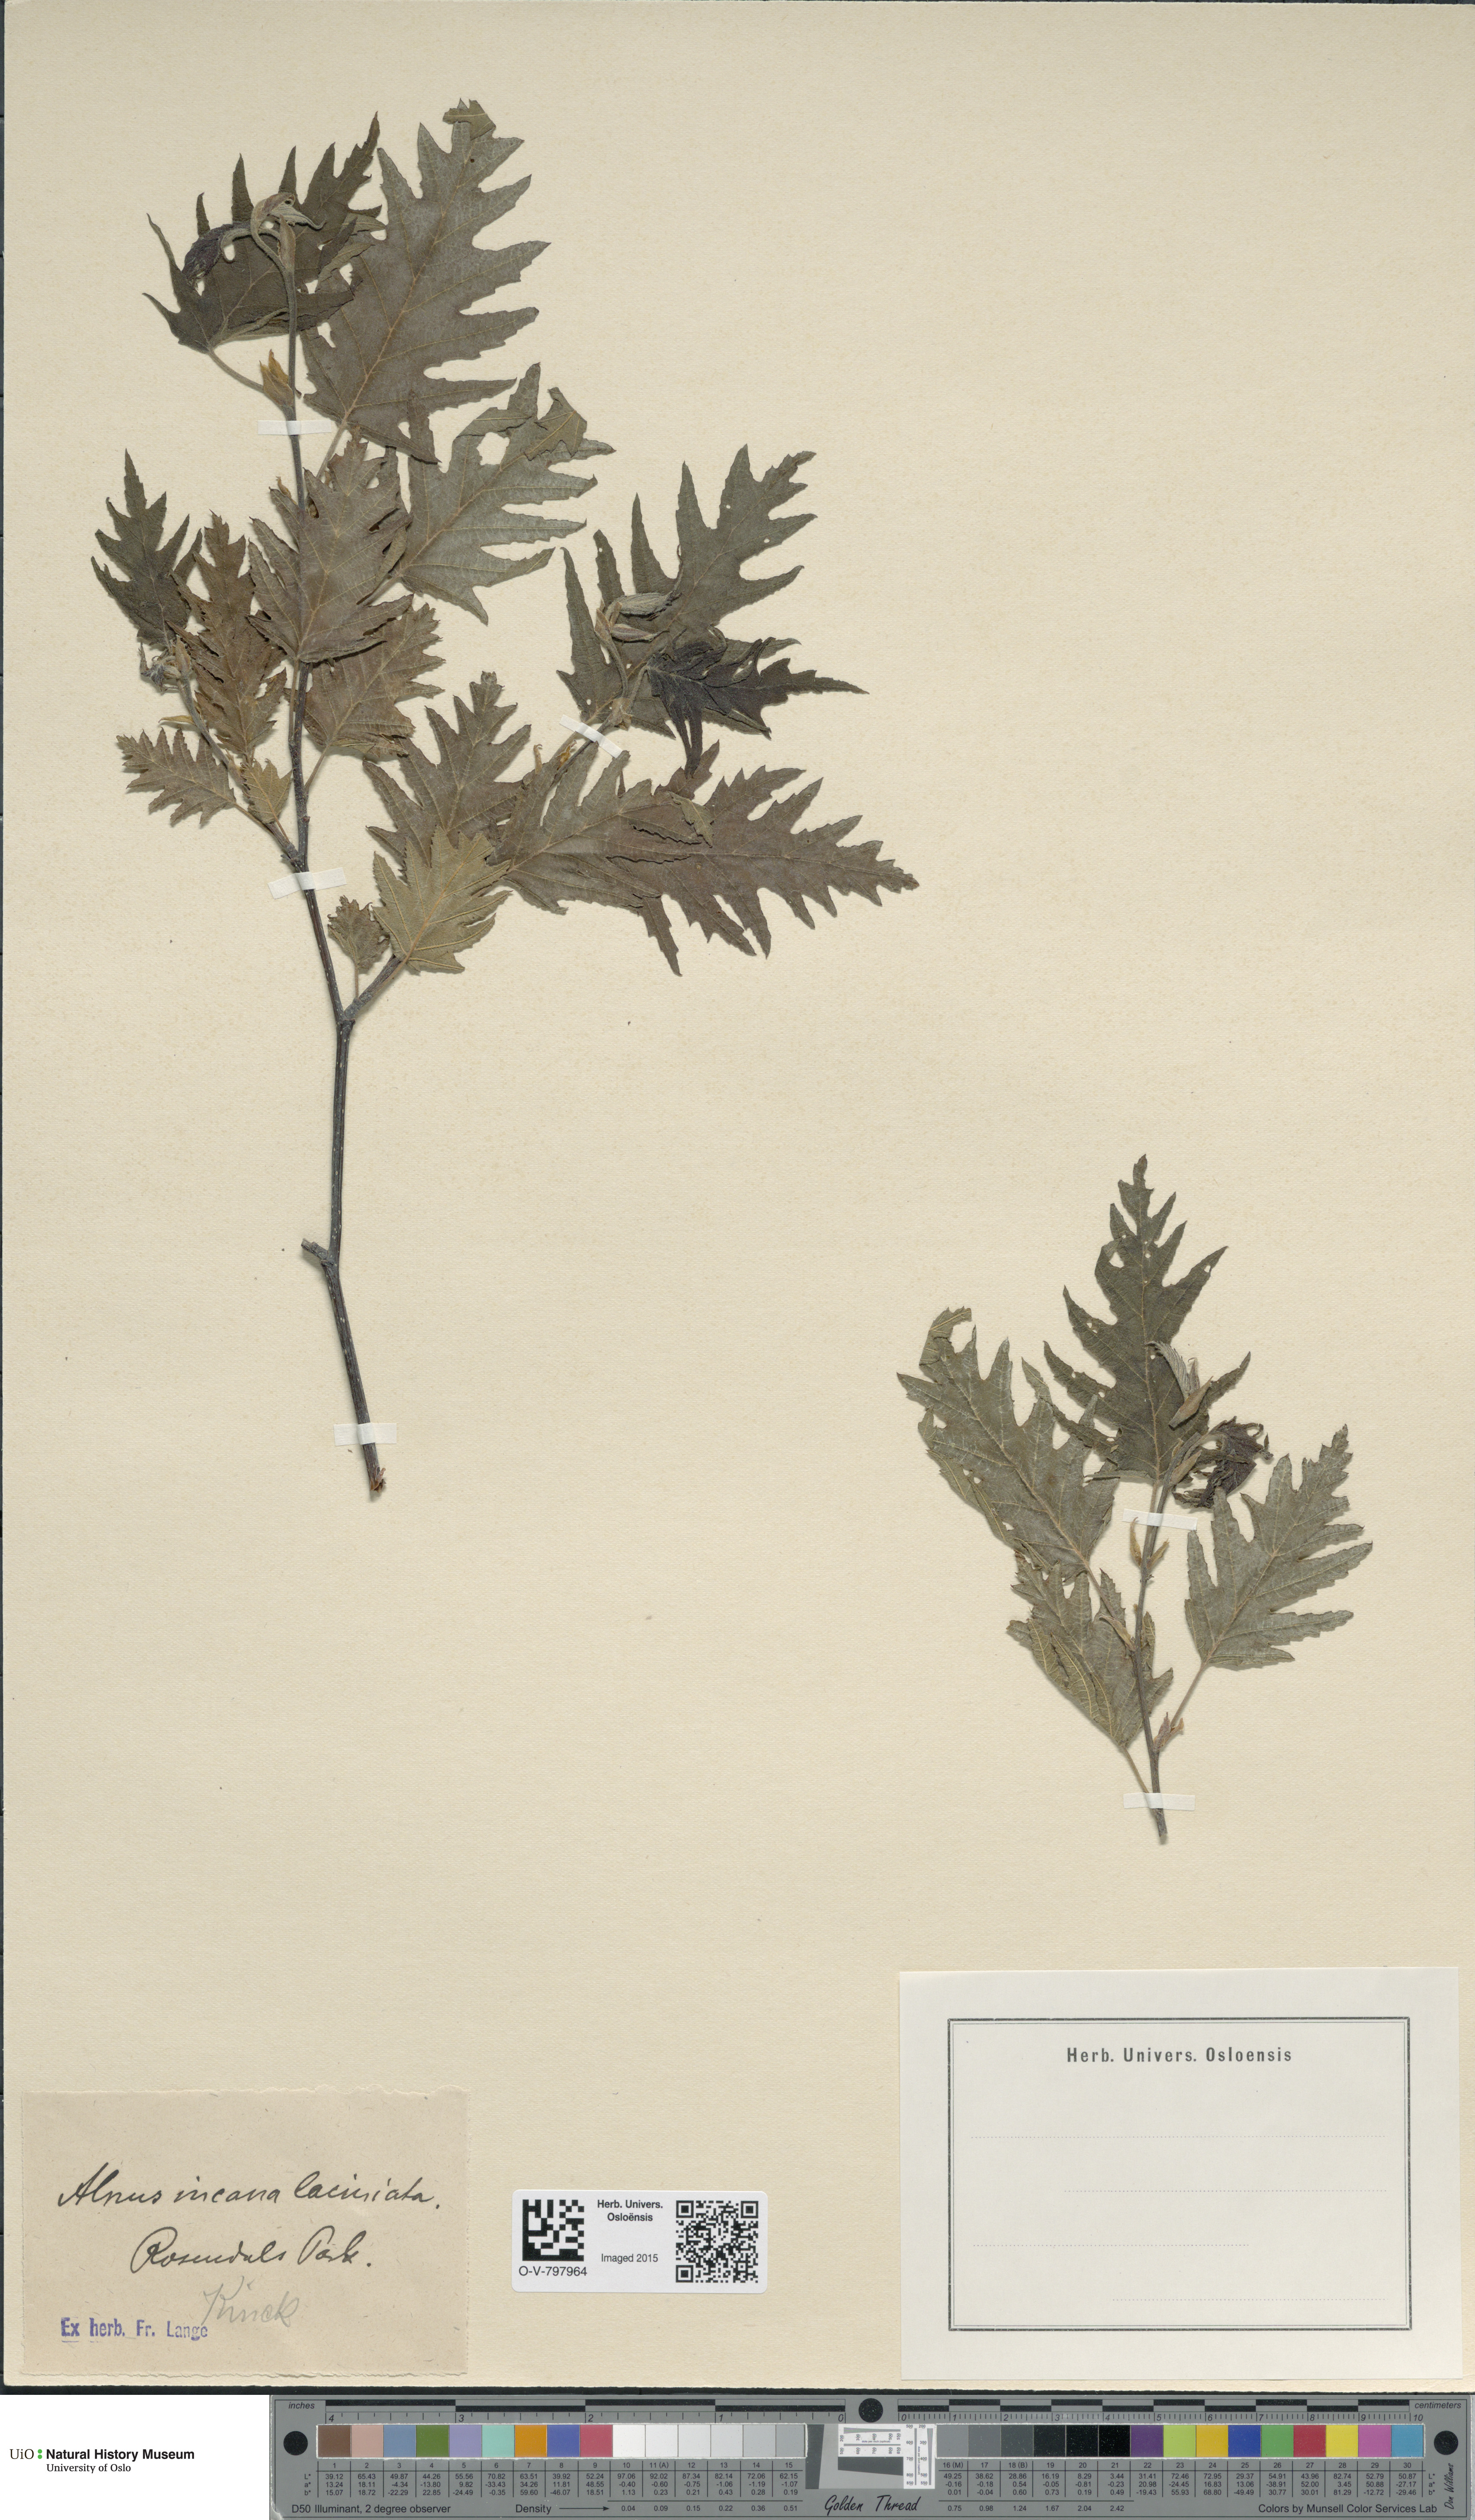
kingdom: Plantae
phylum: Tracheophyta
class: Magnoliopsida
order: Fagales
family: Betulaceae
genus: Alnus
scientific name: Alnus incana
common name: Grey alder
